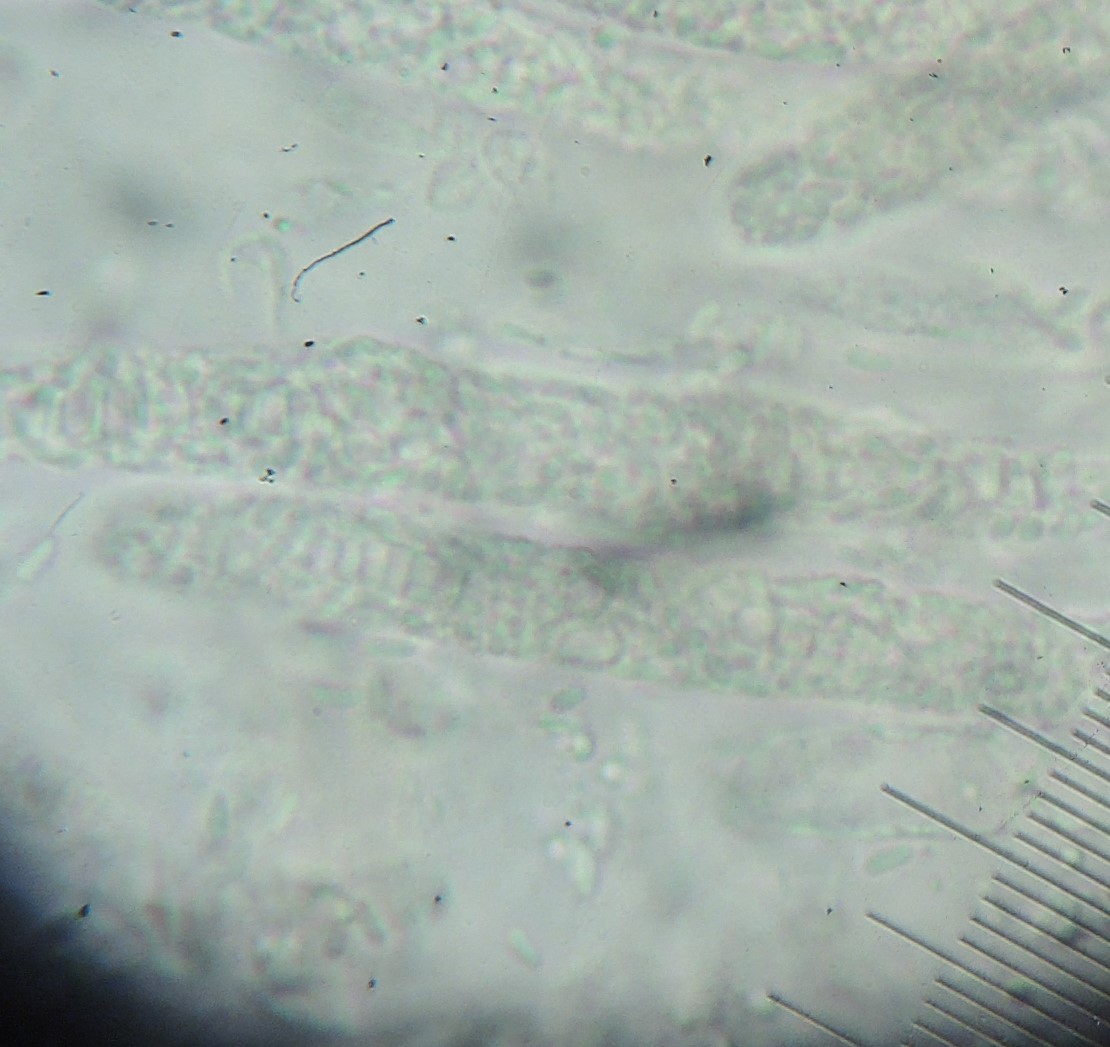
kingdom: Fungi
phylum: Ascomycota
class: Sordariomycetes
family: Thyridiaceae
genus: Thyronectria
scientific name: Thyronectria cucurbitula
